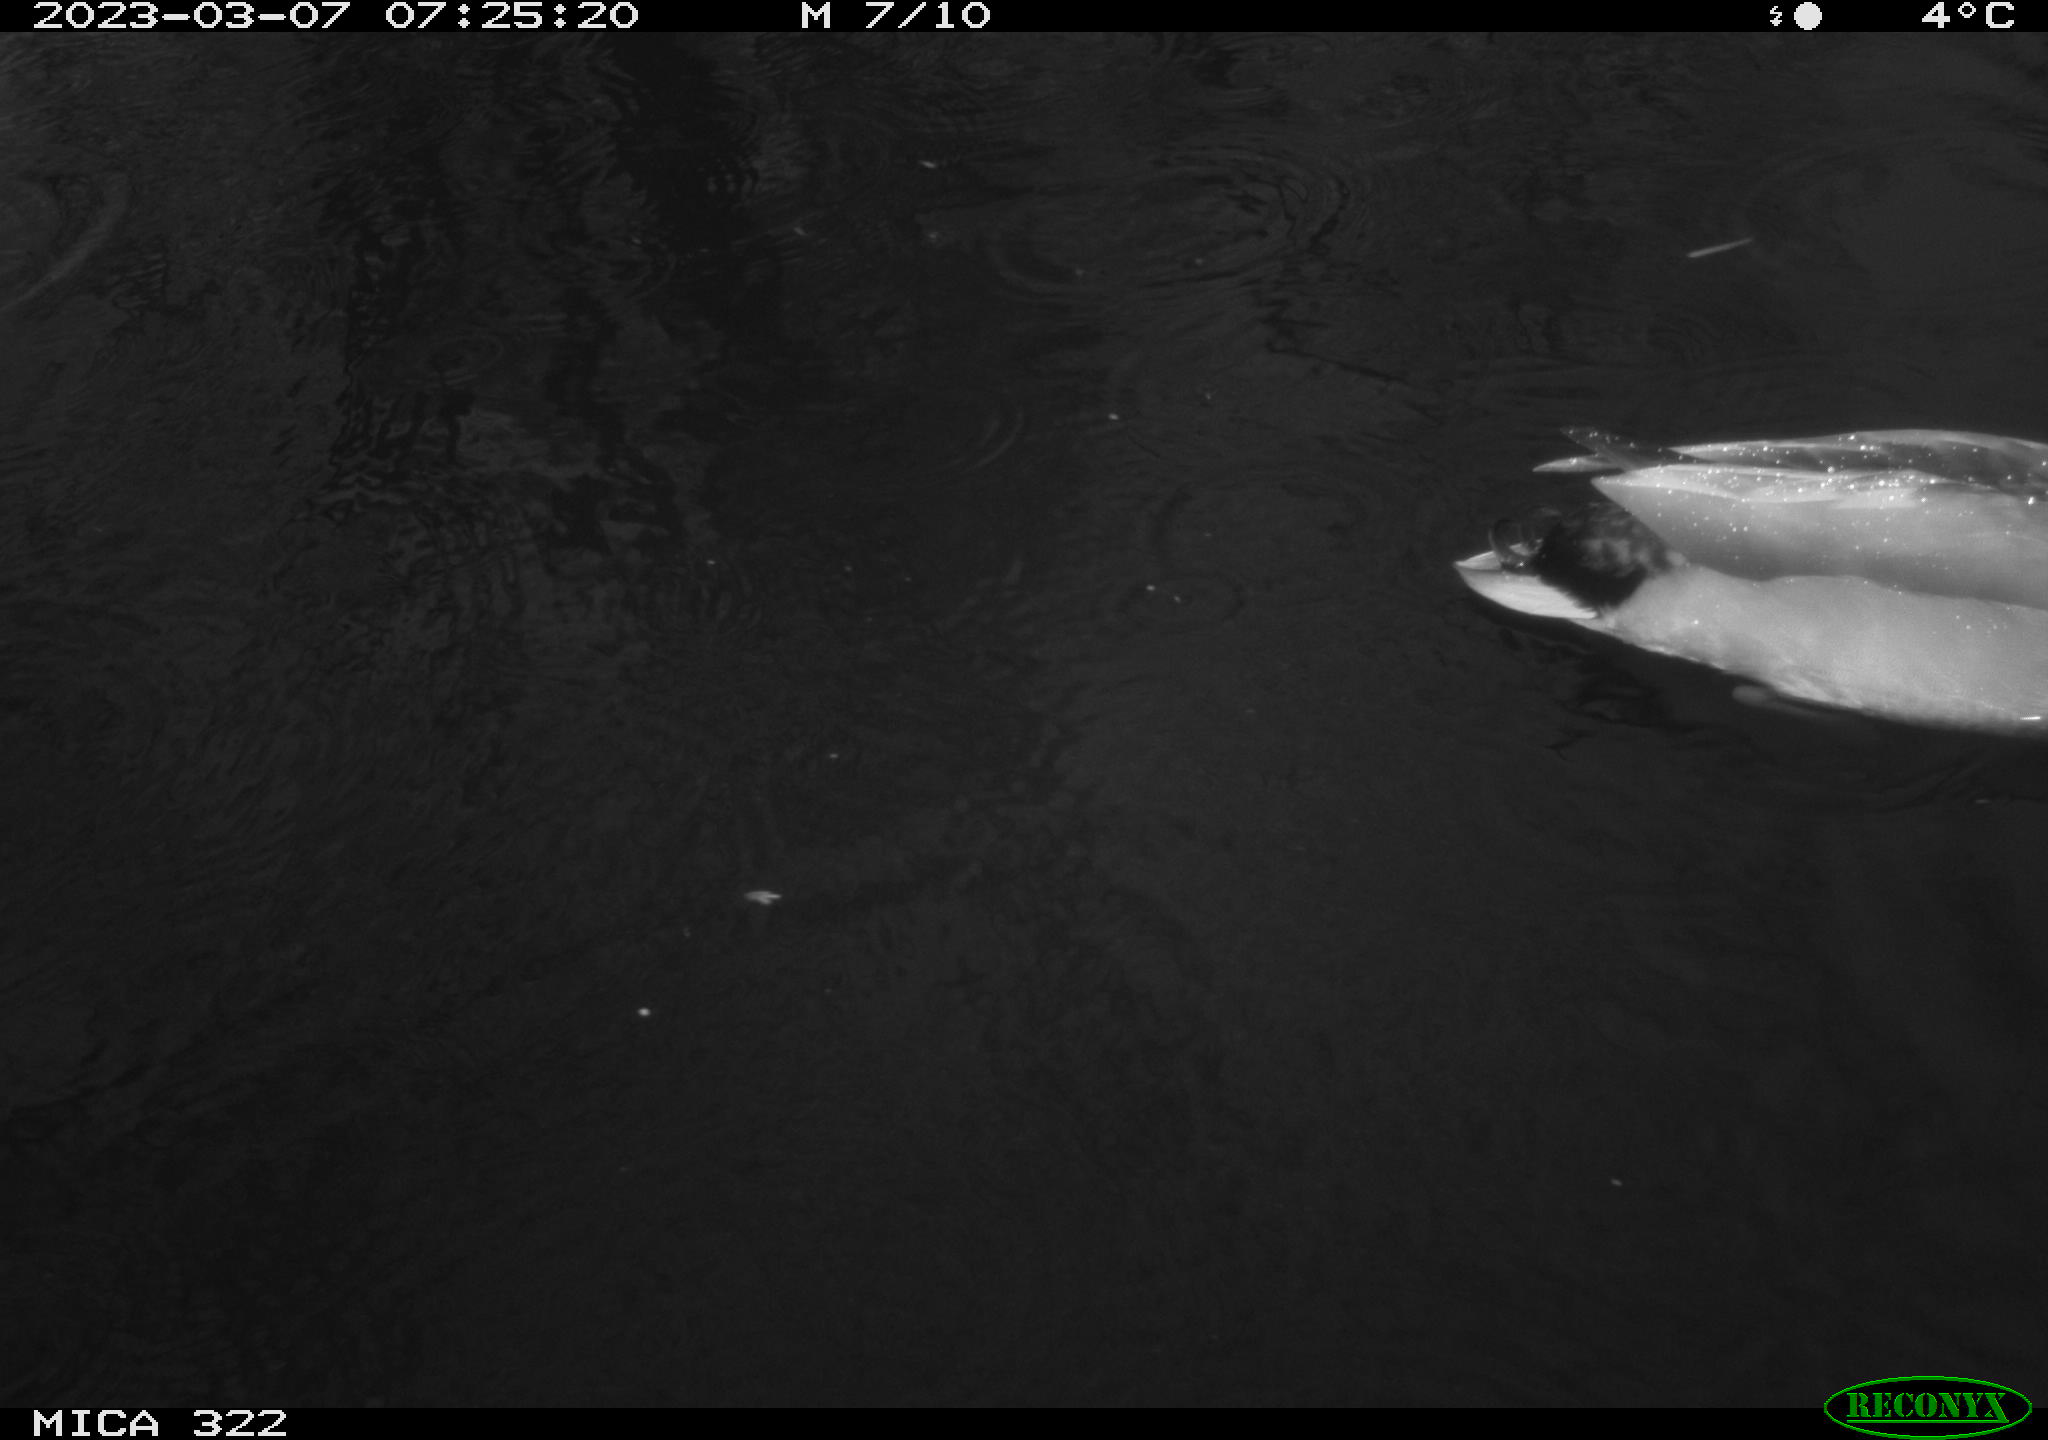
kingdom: Animalia
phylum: Chordata
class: Aves
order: Anseriformes
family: Anatidae
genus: Anas
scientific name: Anas
